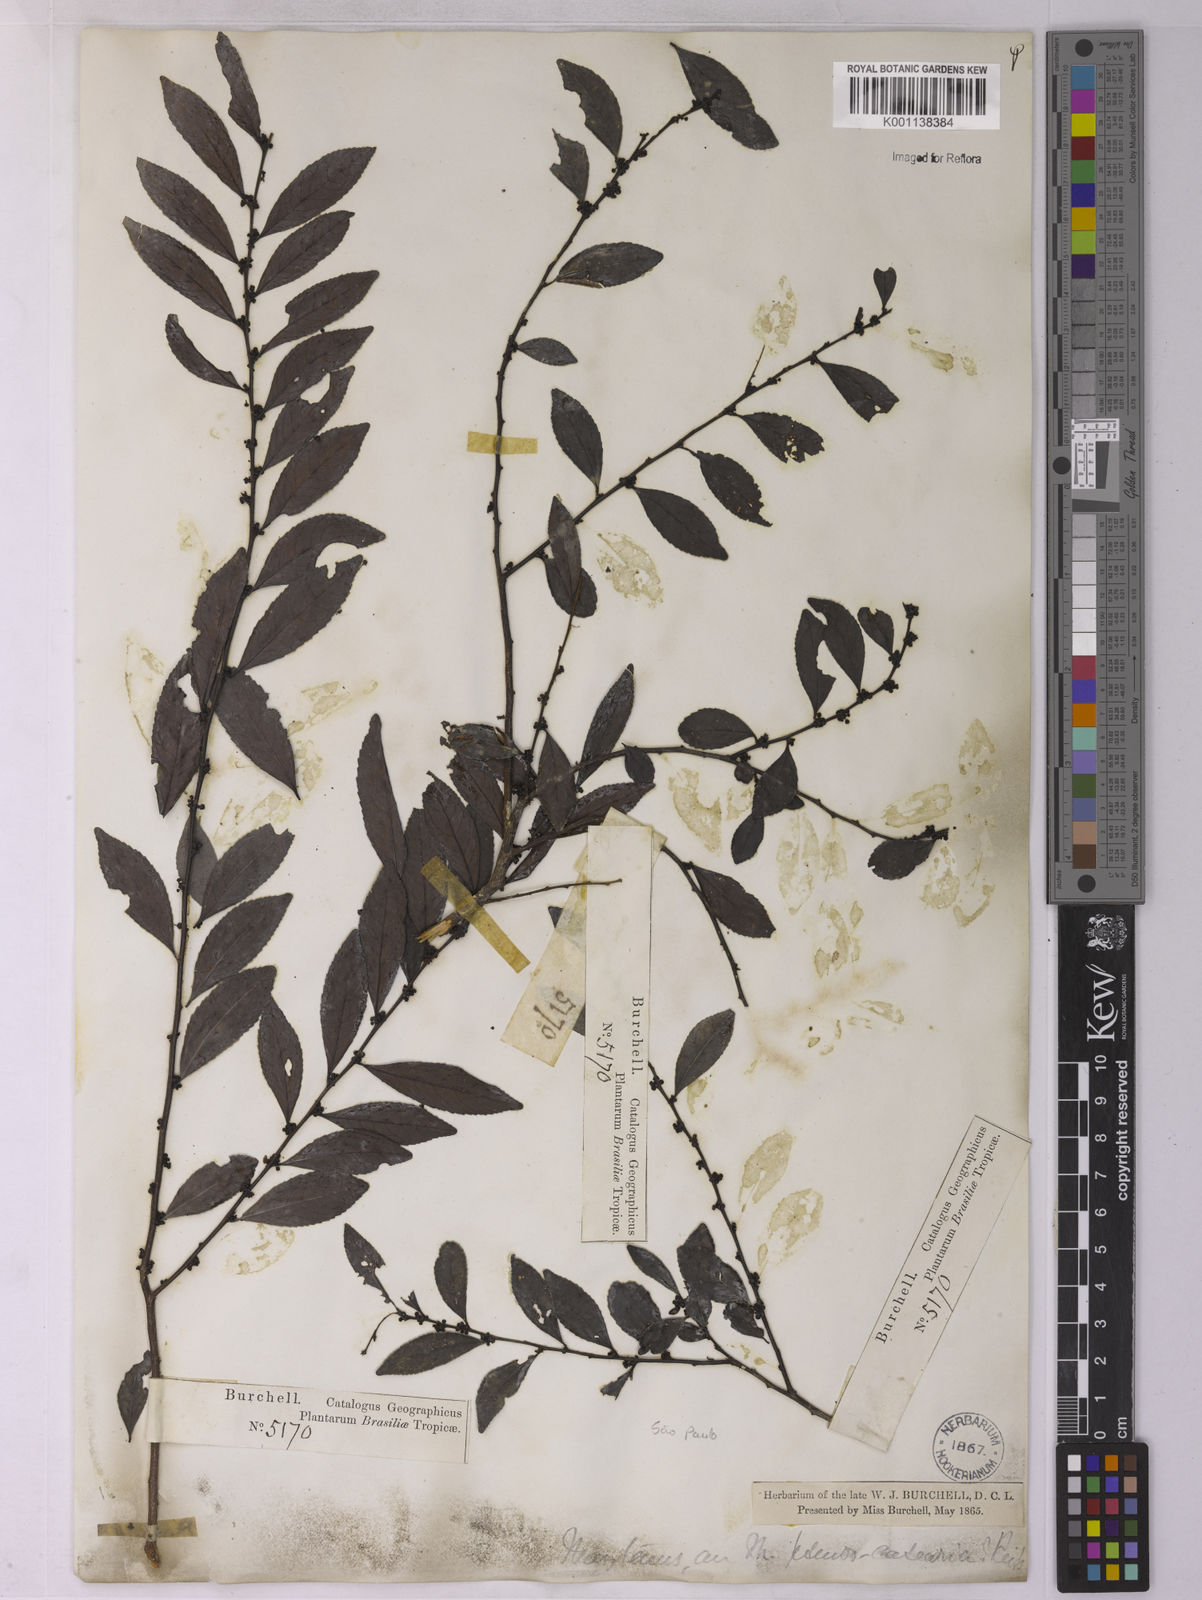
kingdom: Plantae
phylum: Tracheophyta
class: Magnoliopsida
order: Celastrales
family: Celastraceae
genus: Monteverdia
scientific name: Monteverdia evonymoides
